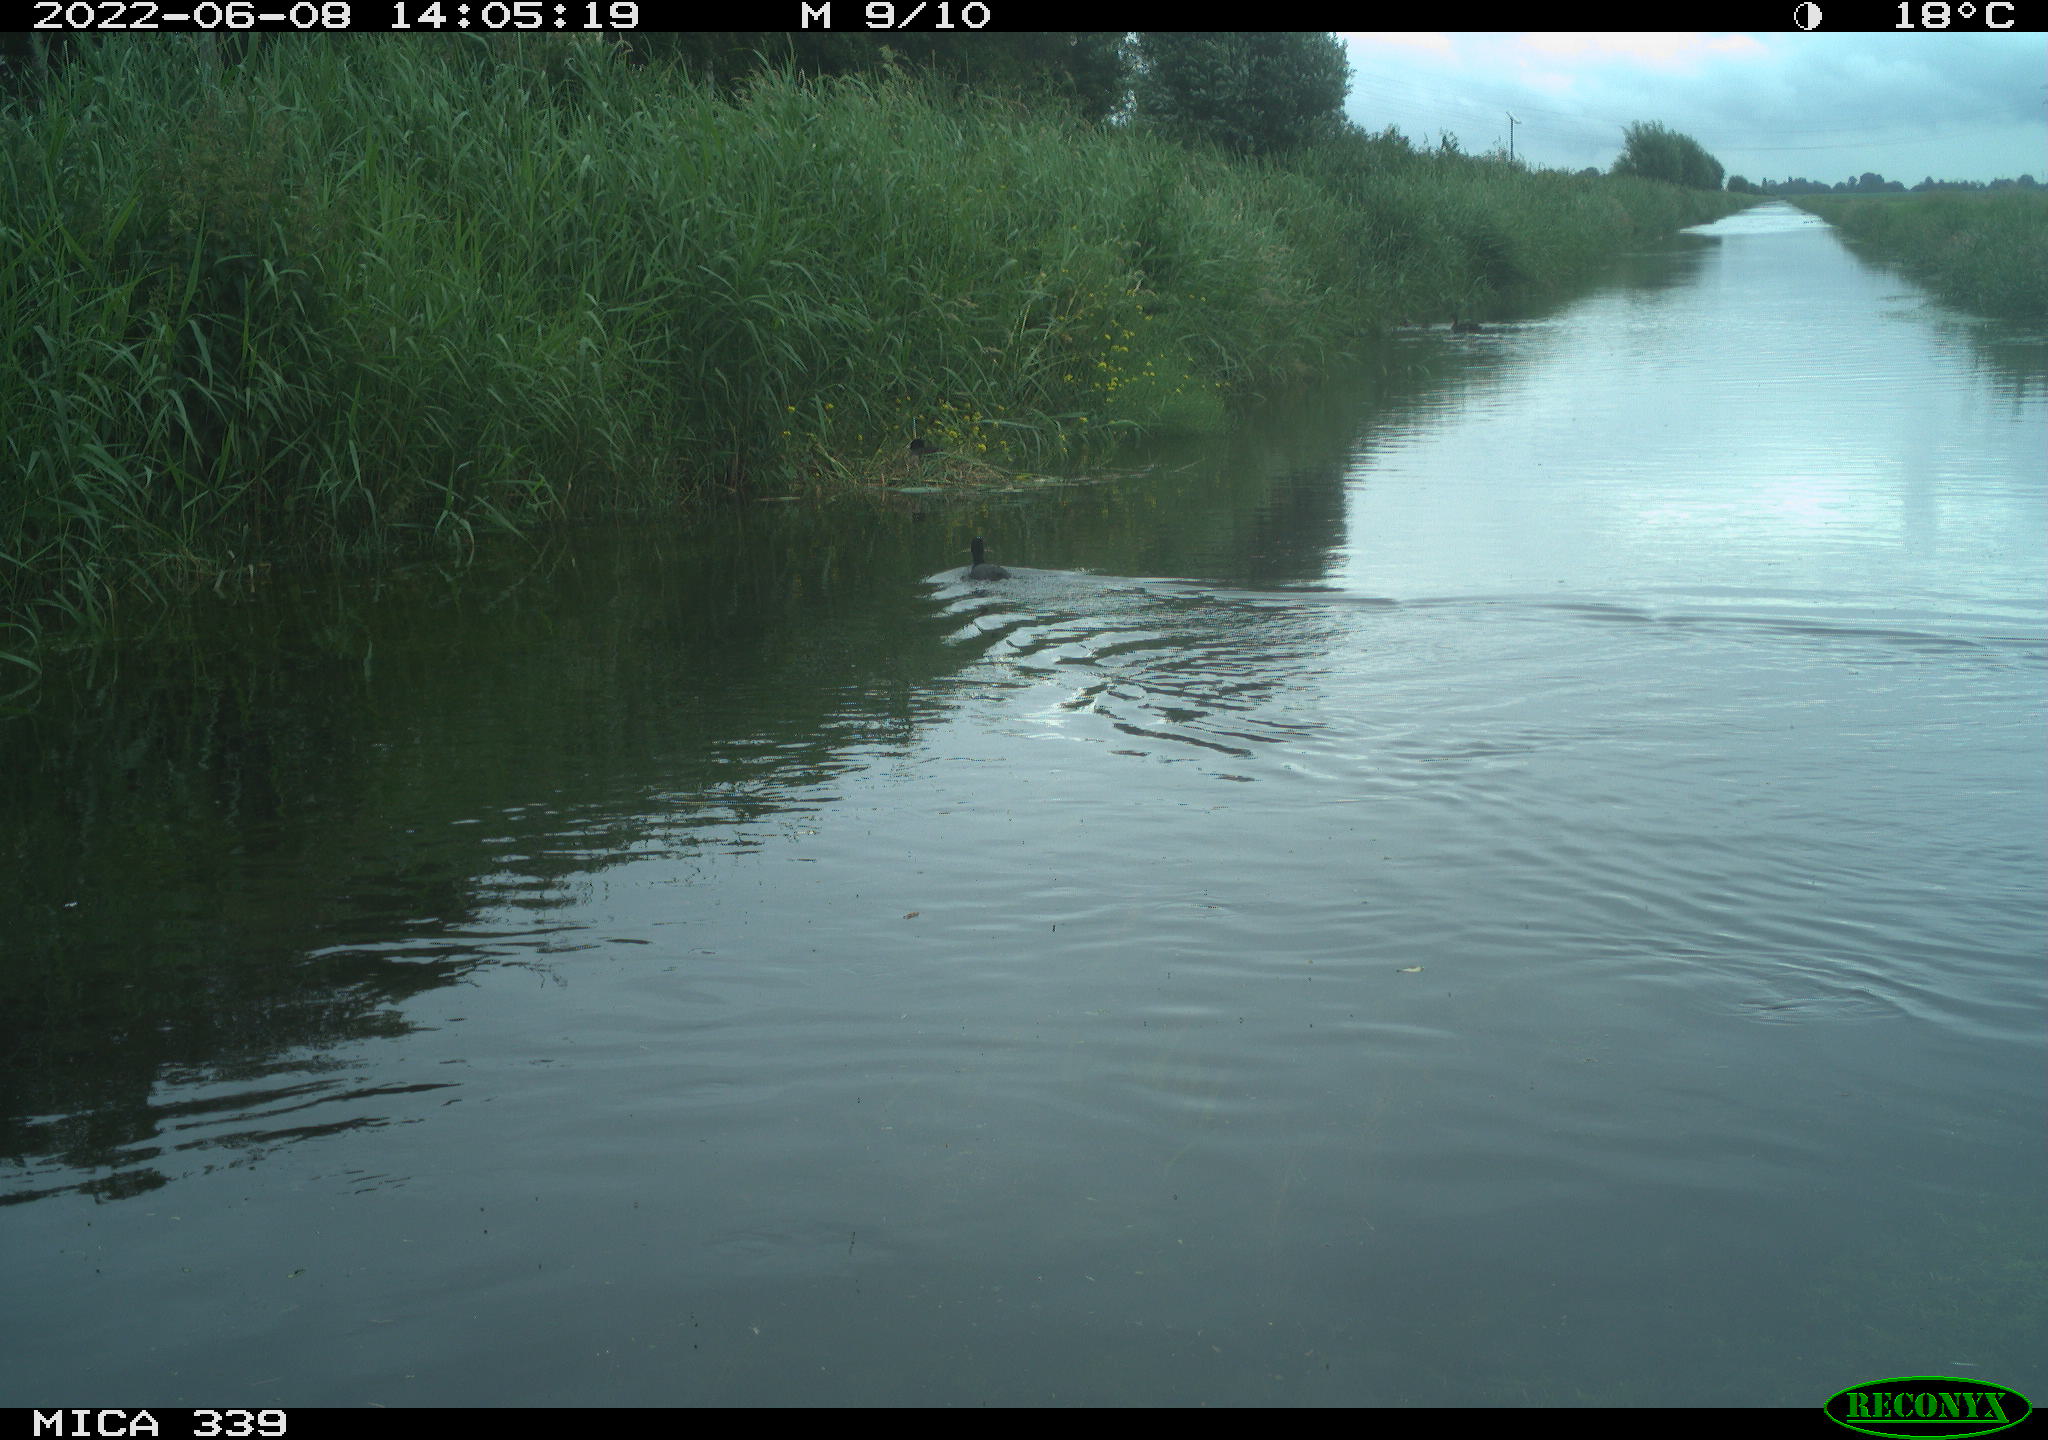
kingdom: Animalia
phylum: Chordata
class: Aves
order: Gruiformes
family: Rallidae
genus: Fulica
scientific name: Fulica atra
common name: Eurasian coot
